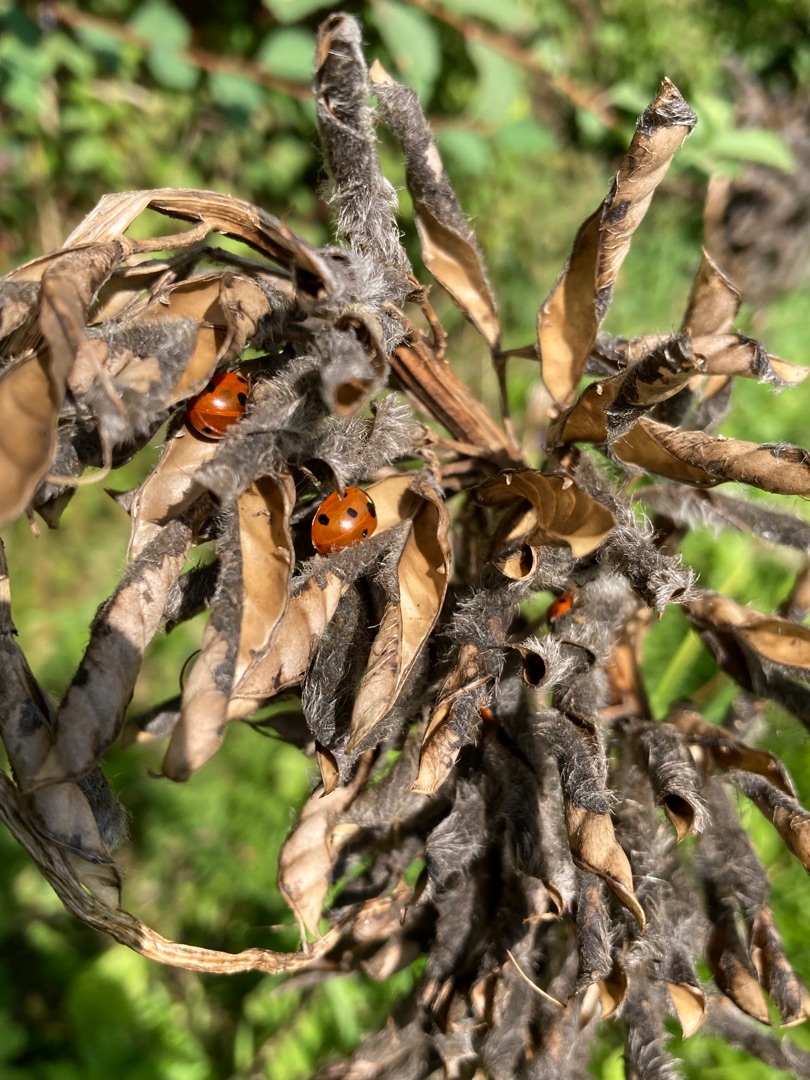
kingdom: Animalia
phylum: Arthropoda
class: Insecta
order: Coleoptera
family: Coccinellidae
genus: Coccinella
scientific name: Coccinella septempunctata
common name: Syvplettet mariehøne
